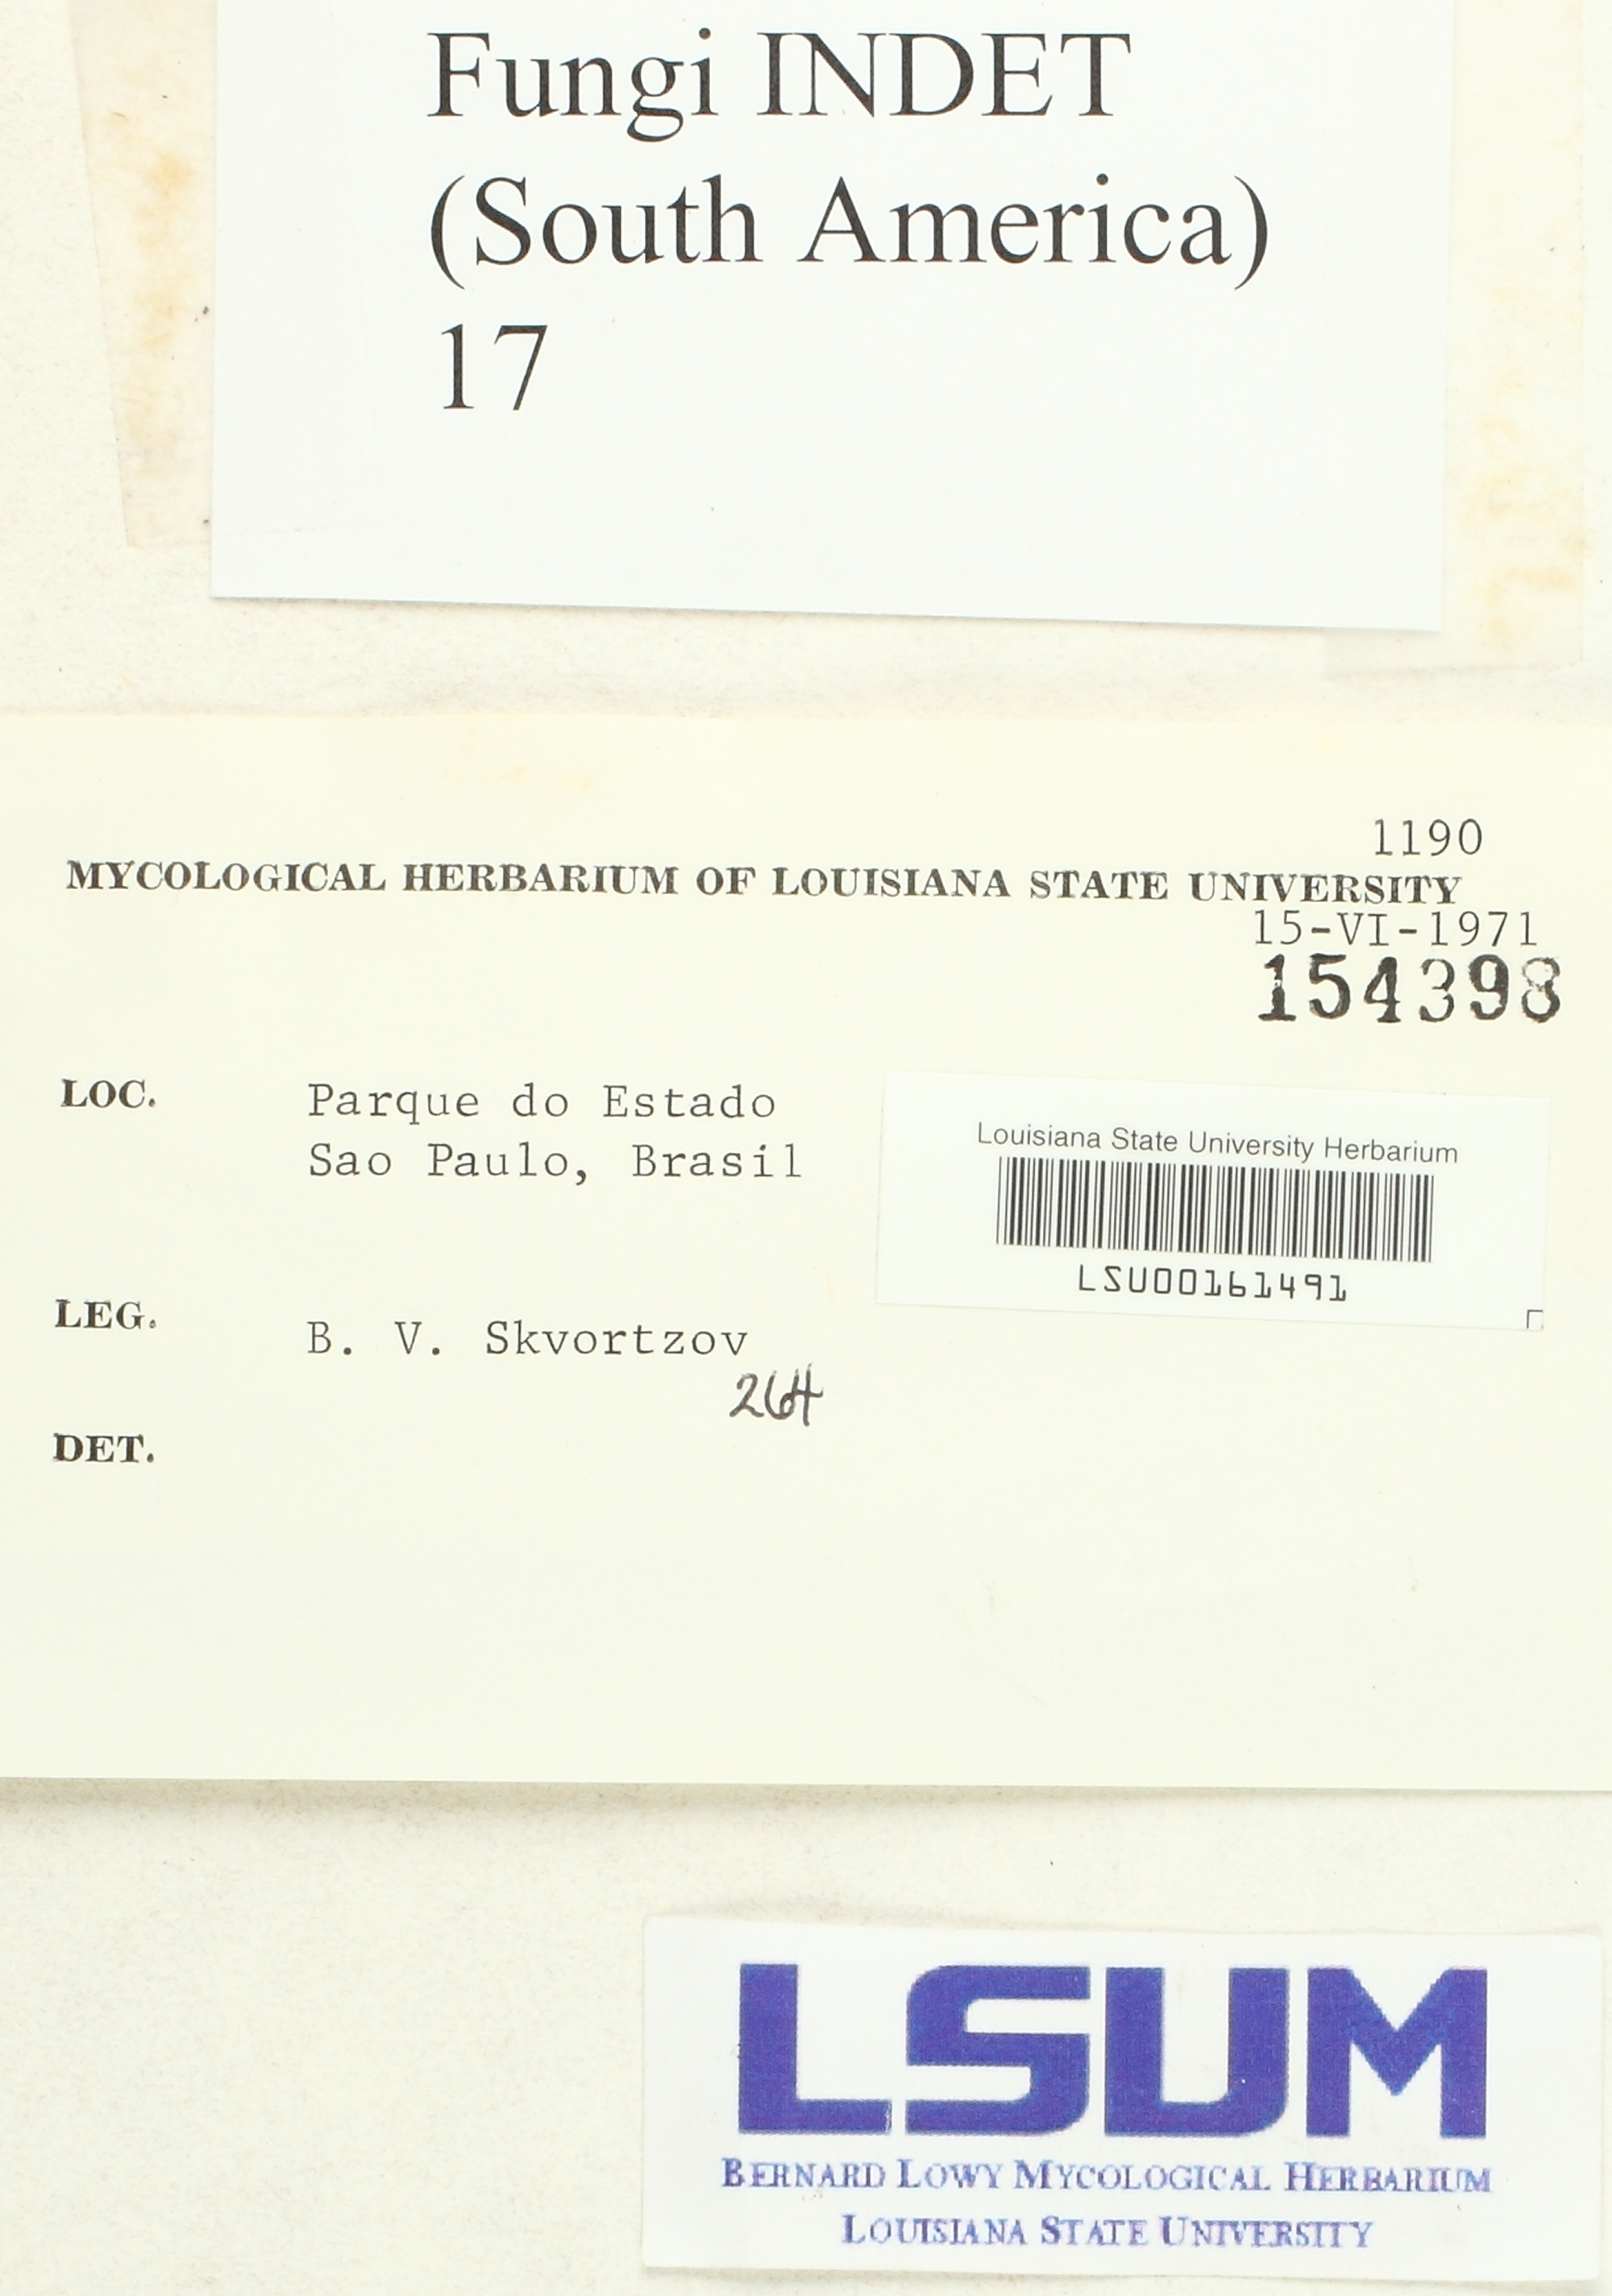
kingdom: Fungi
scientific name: Fungi
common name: Fungi
